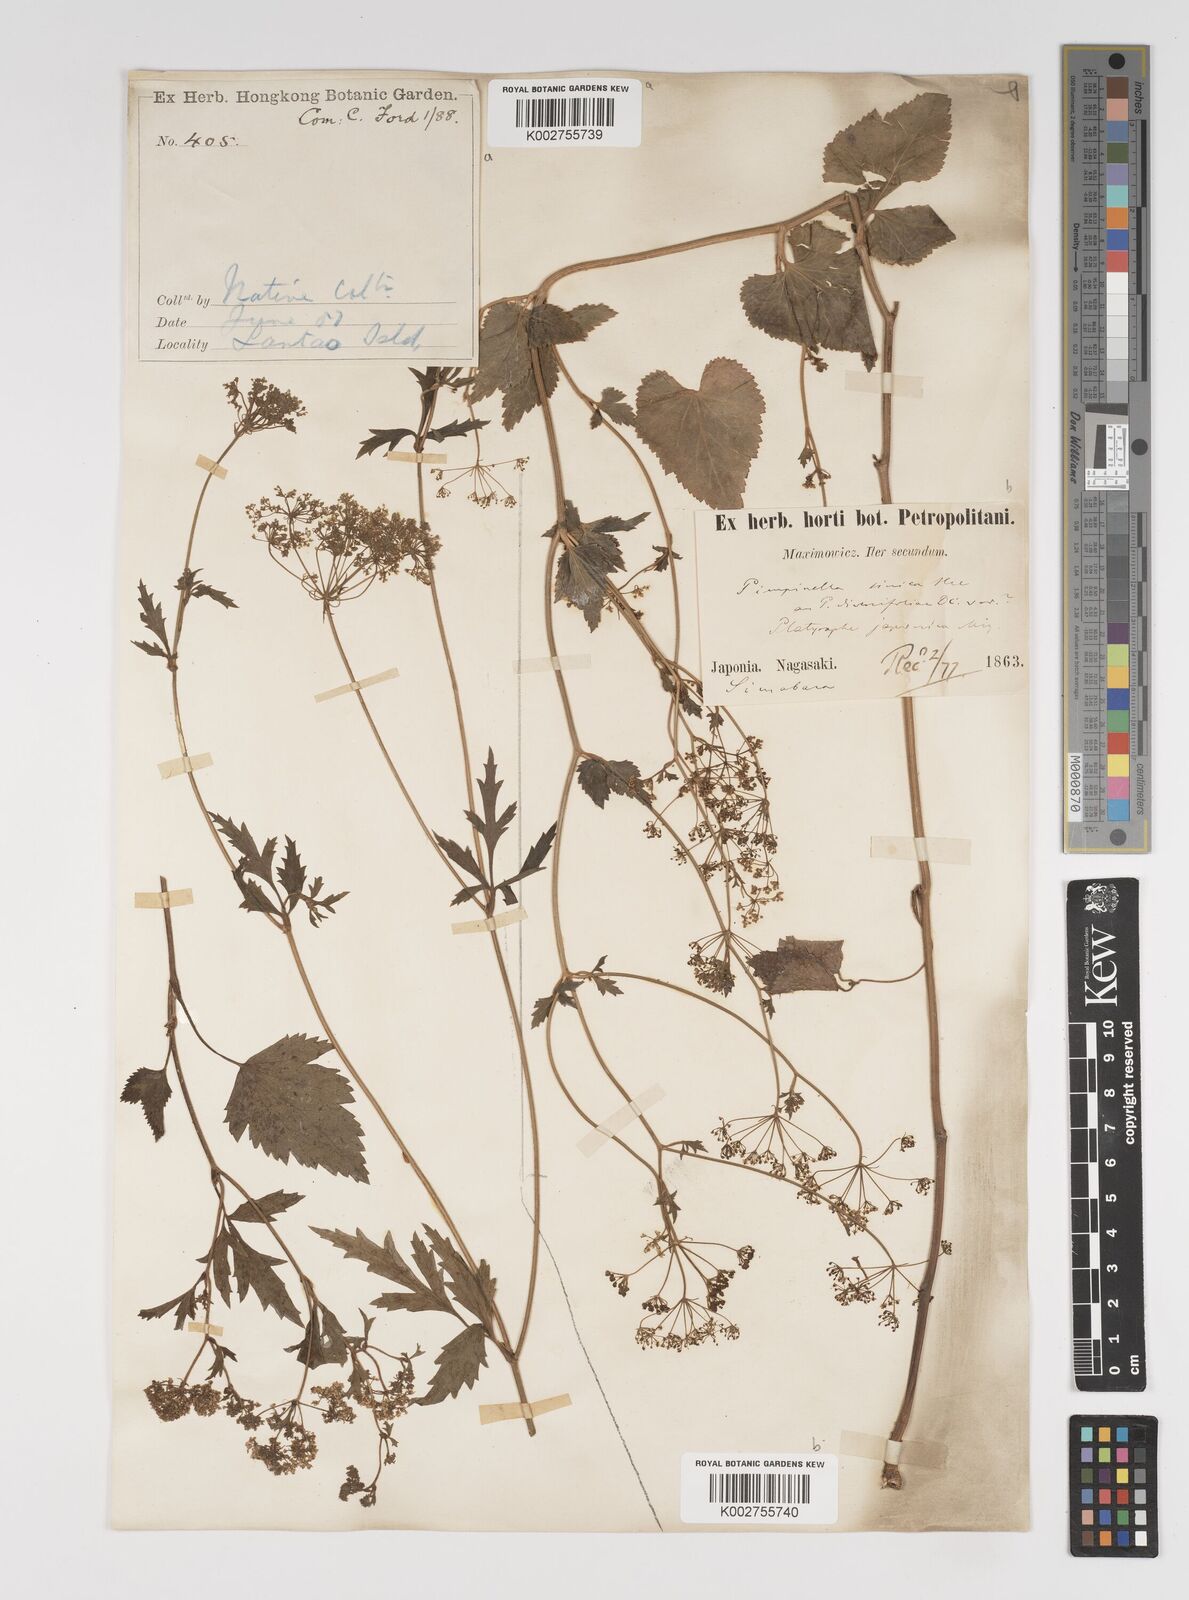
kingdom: Plantae
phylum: Tracheophyta
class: Magnoliopsida
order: Apiales
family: Apiaceae
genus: Pimpinella
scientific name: Pimpinella diversifolia
